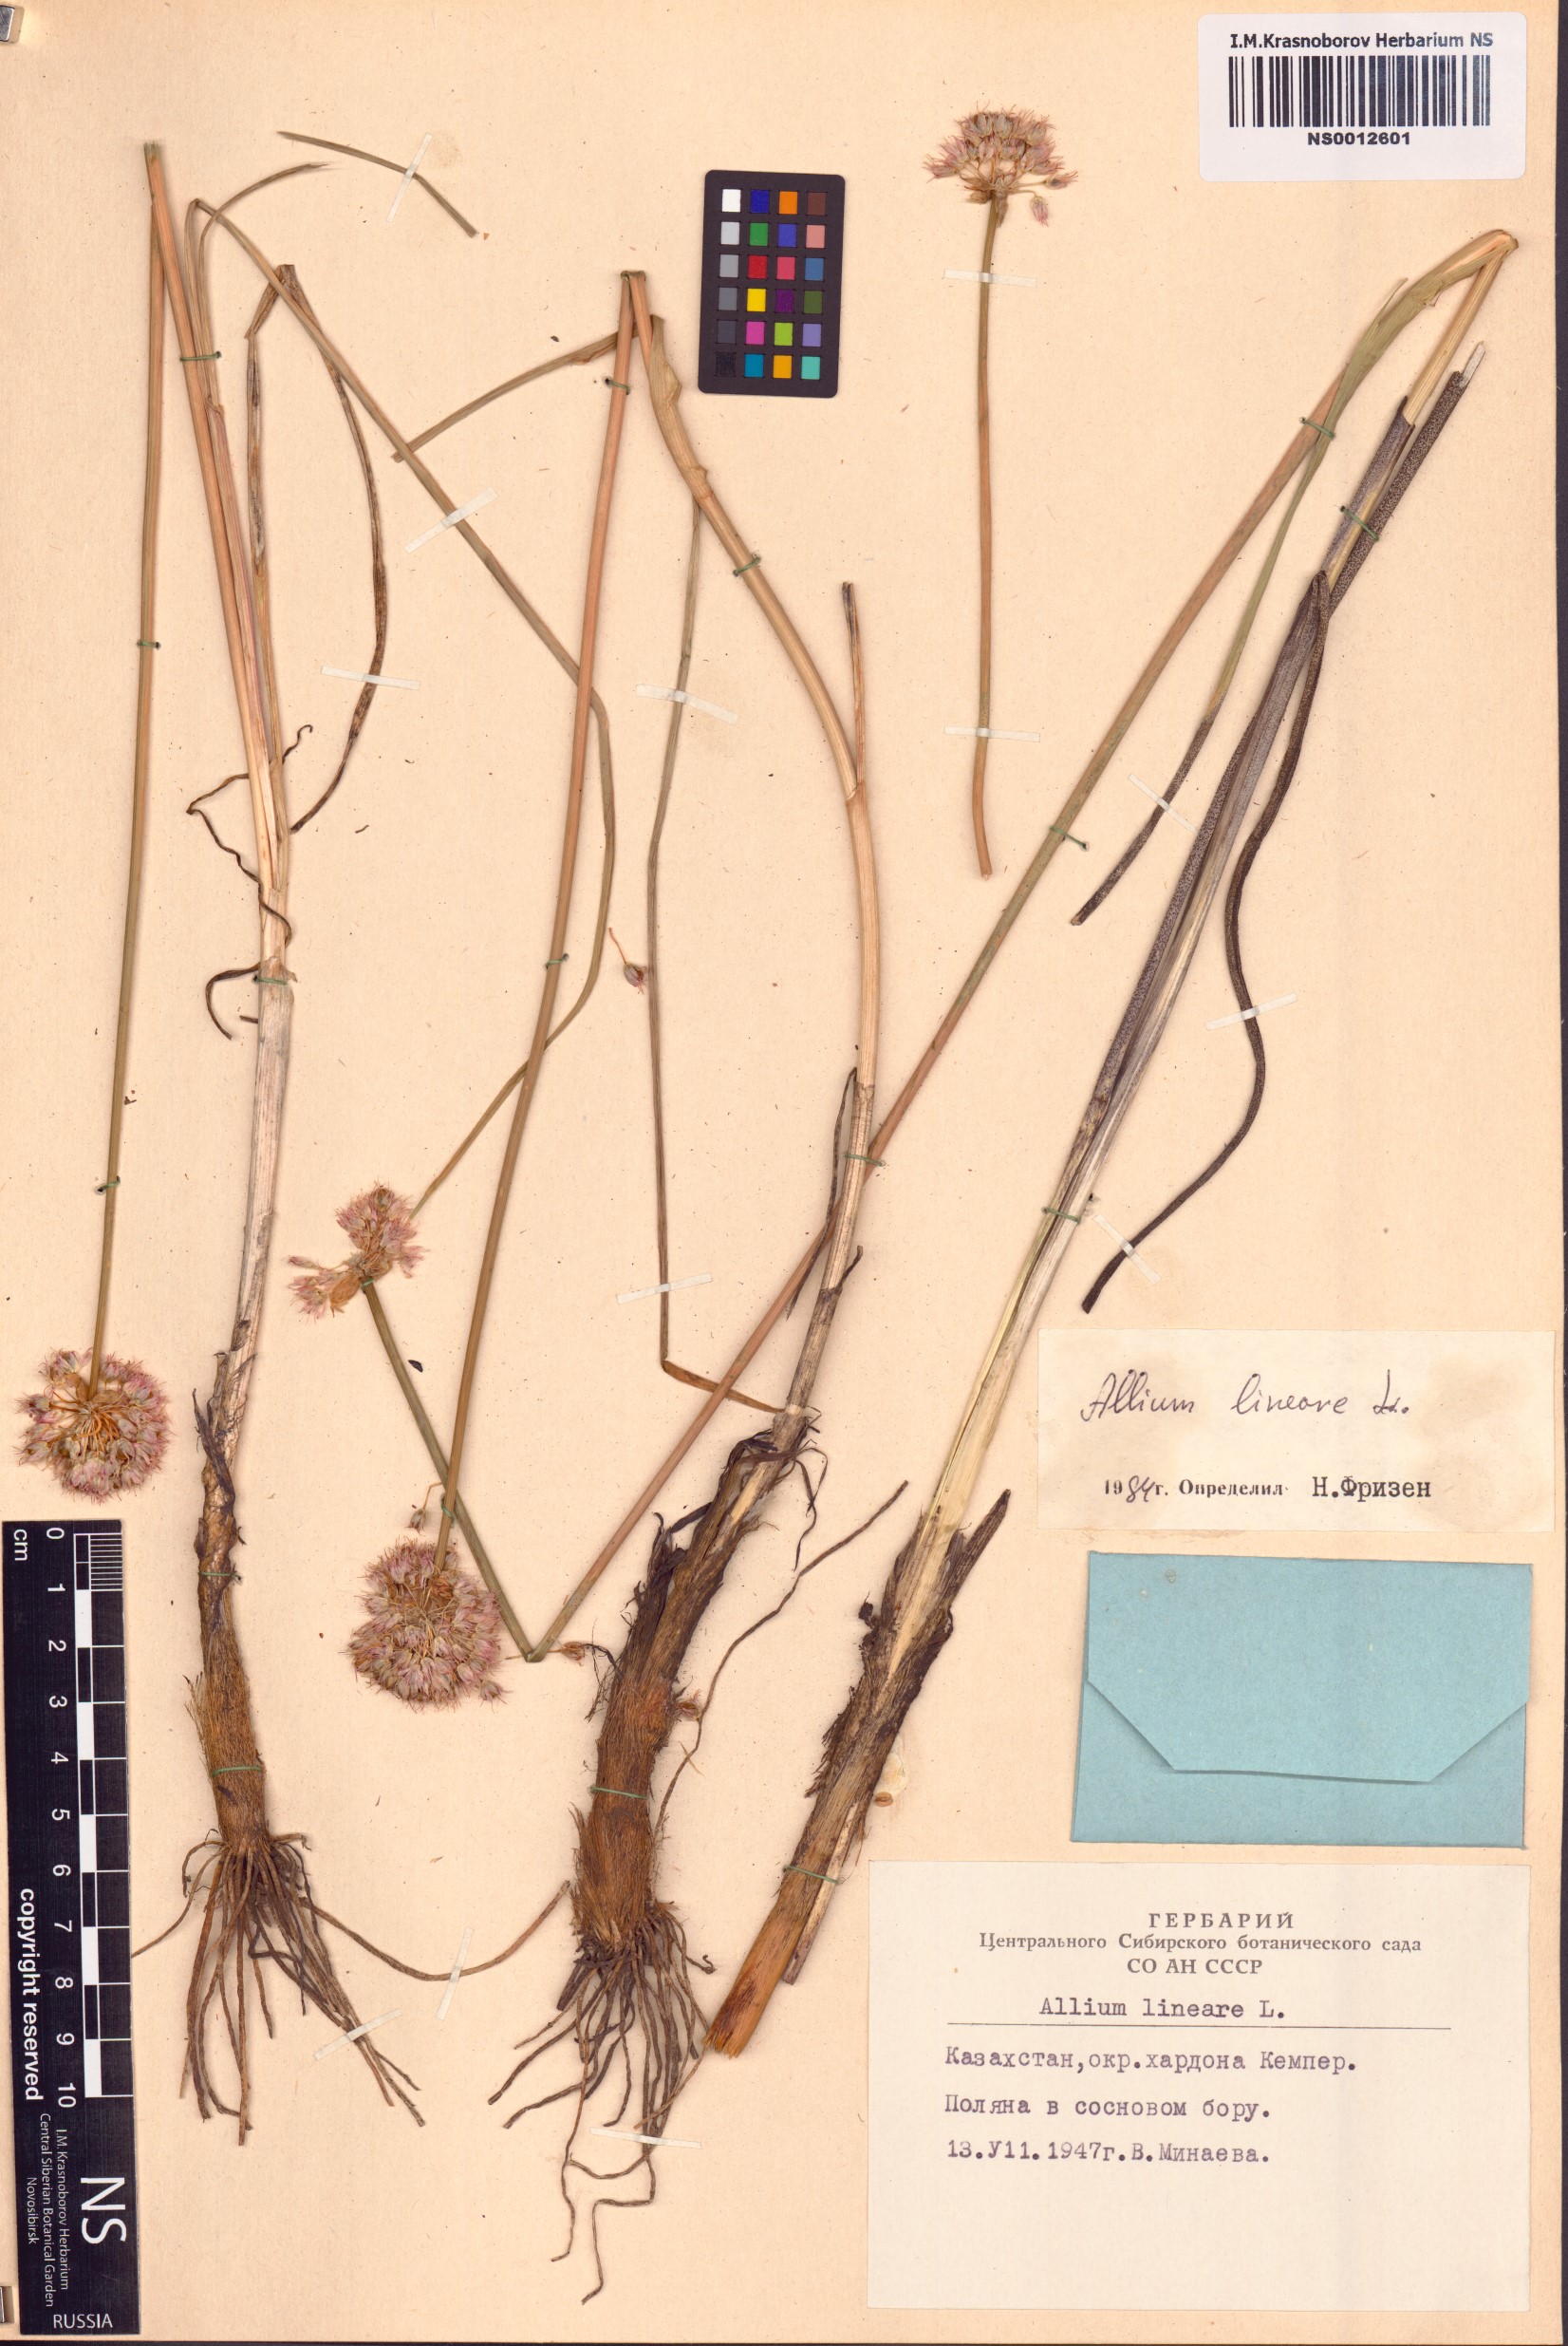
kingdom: Plantae
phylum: Tracheophyta
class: Liliopsida
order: Asparagales
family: Amaryllidaceae
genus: Allium
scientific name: Allium lineare
